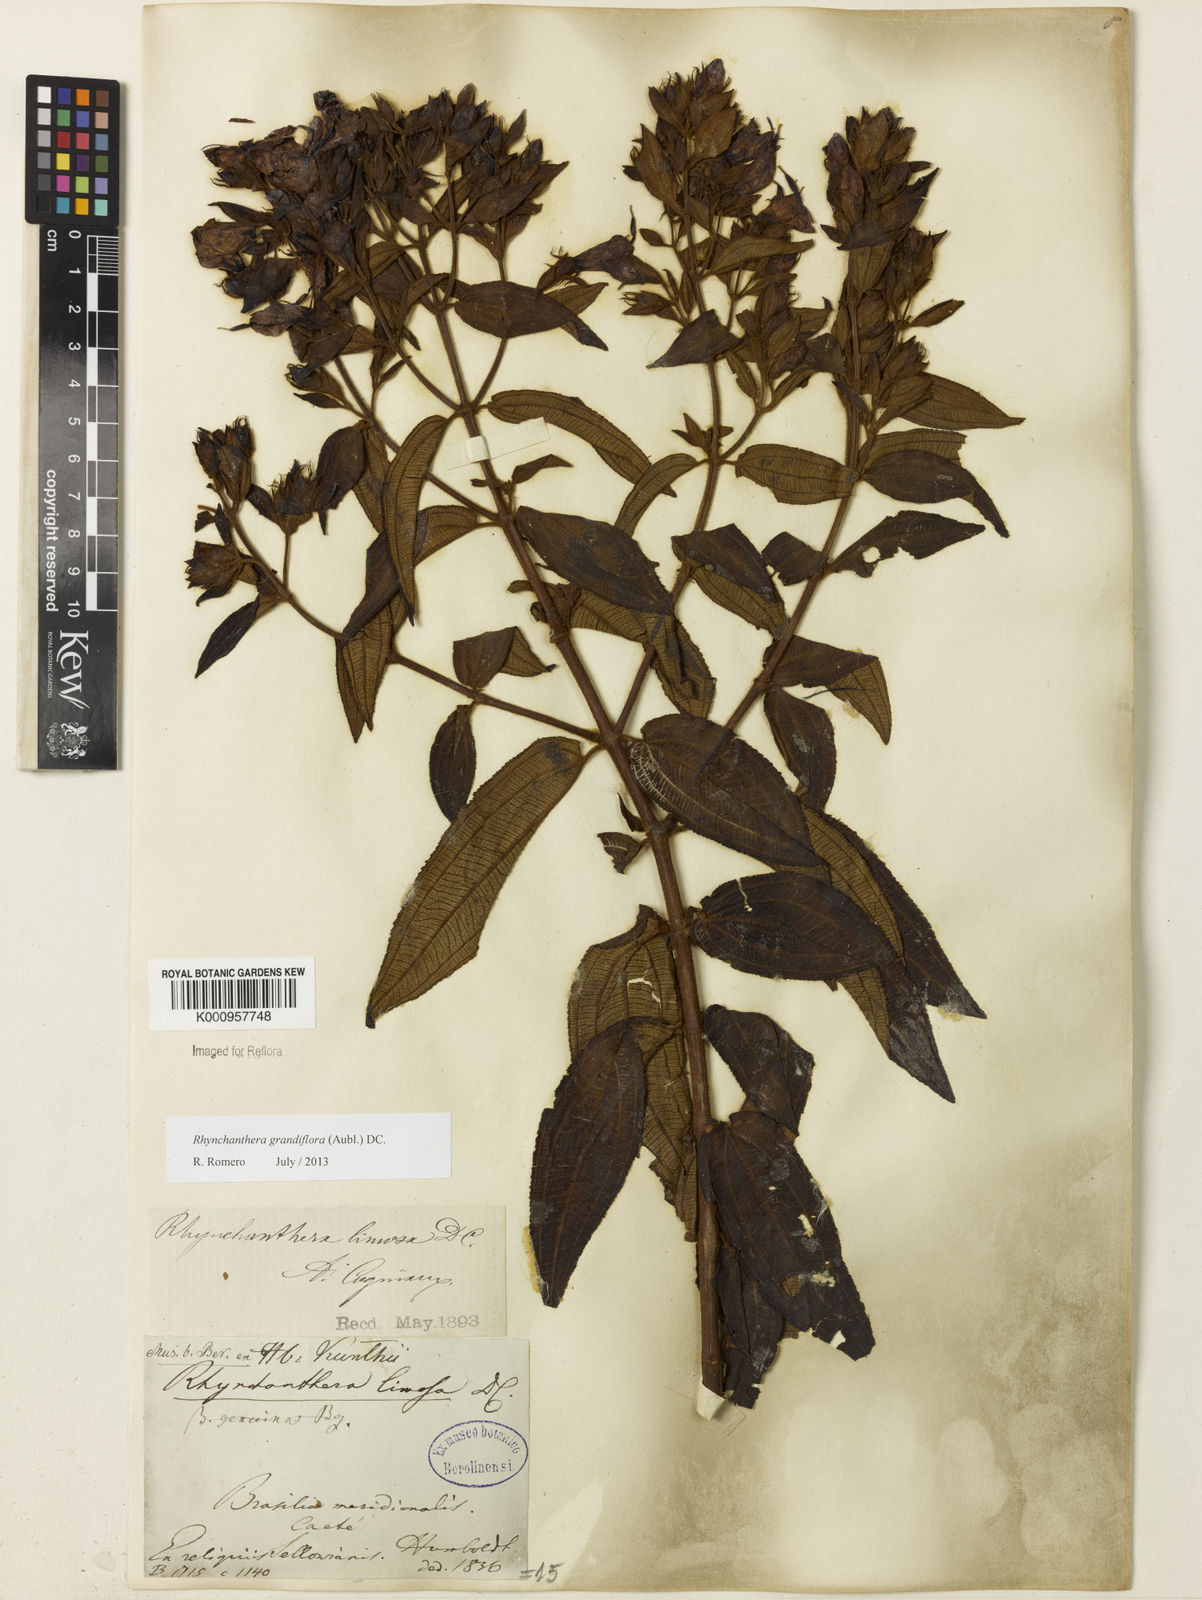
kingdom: Plantae
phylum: Tracheophyta
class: Magnoliopsida
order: Myrtales
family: Melastomataceae
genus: Rhynchanthera
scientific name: Rhynchanthera grandiflora
